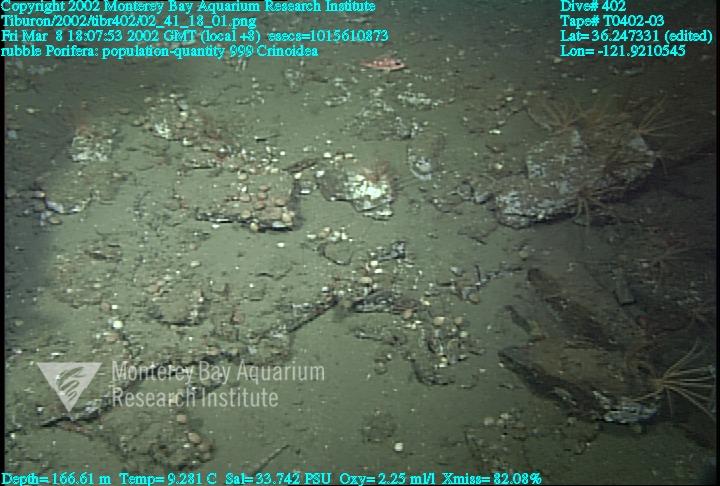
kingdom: Animalia
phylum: Porifera
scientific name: Porifera
